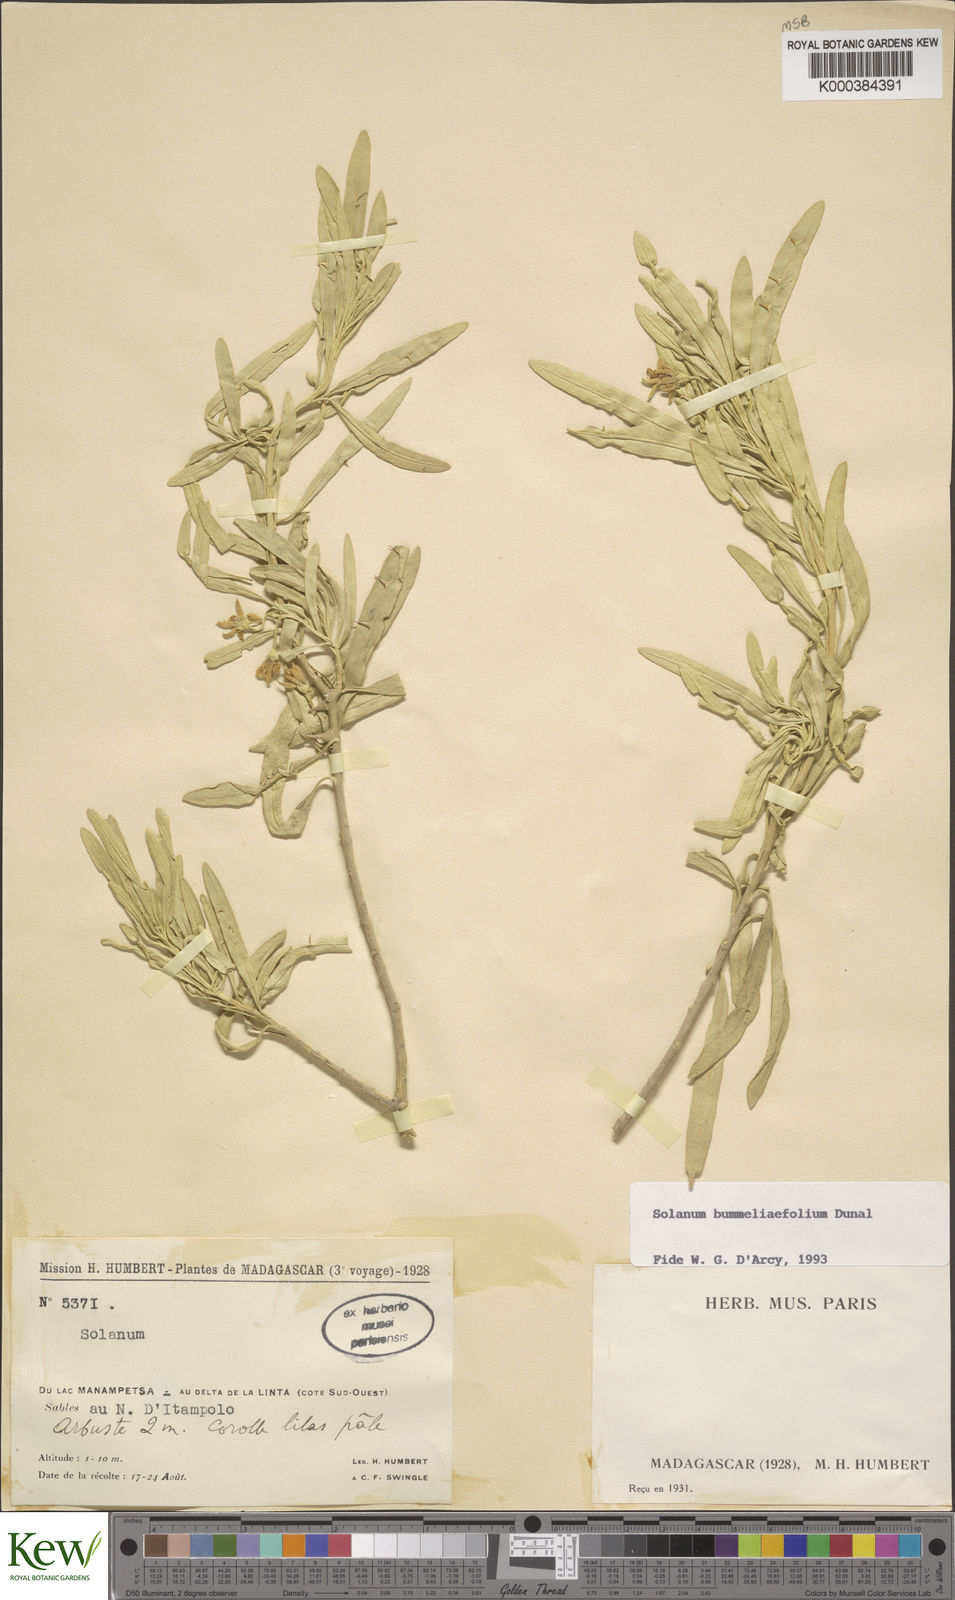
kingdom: Plantae
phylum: Tracheophyta
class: Magnoliopsida
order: Solanales
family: Solanaceae
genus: Solanum
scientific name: Solanum bumeliifolium
